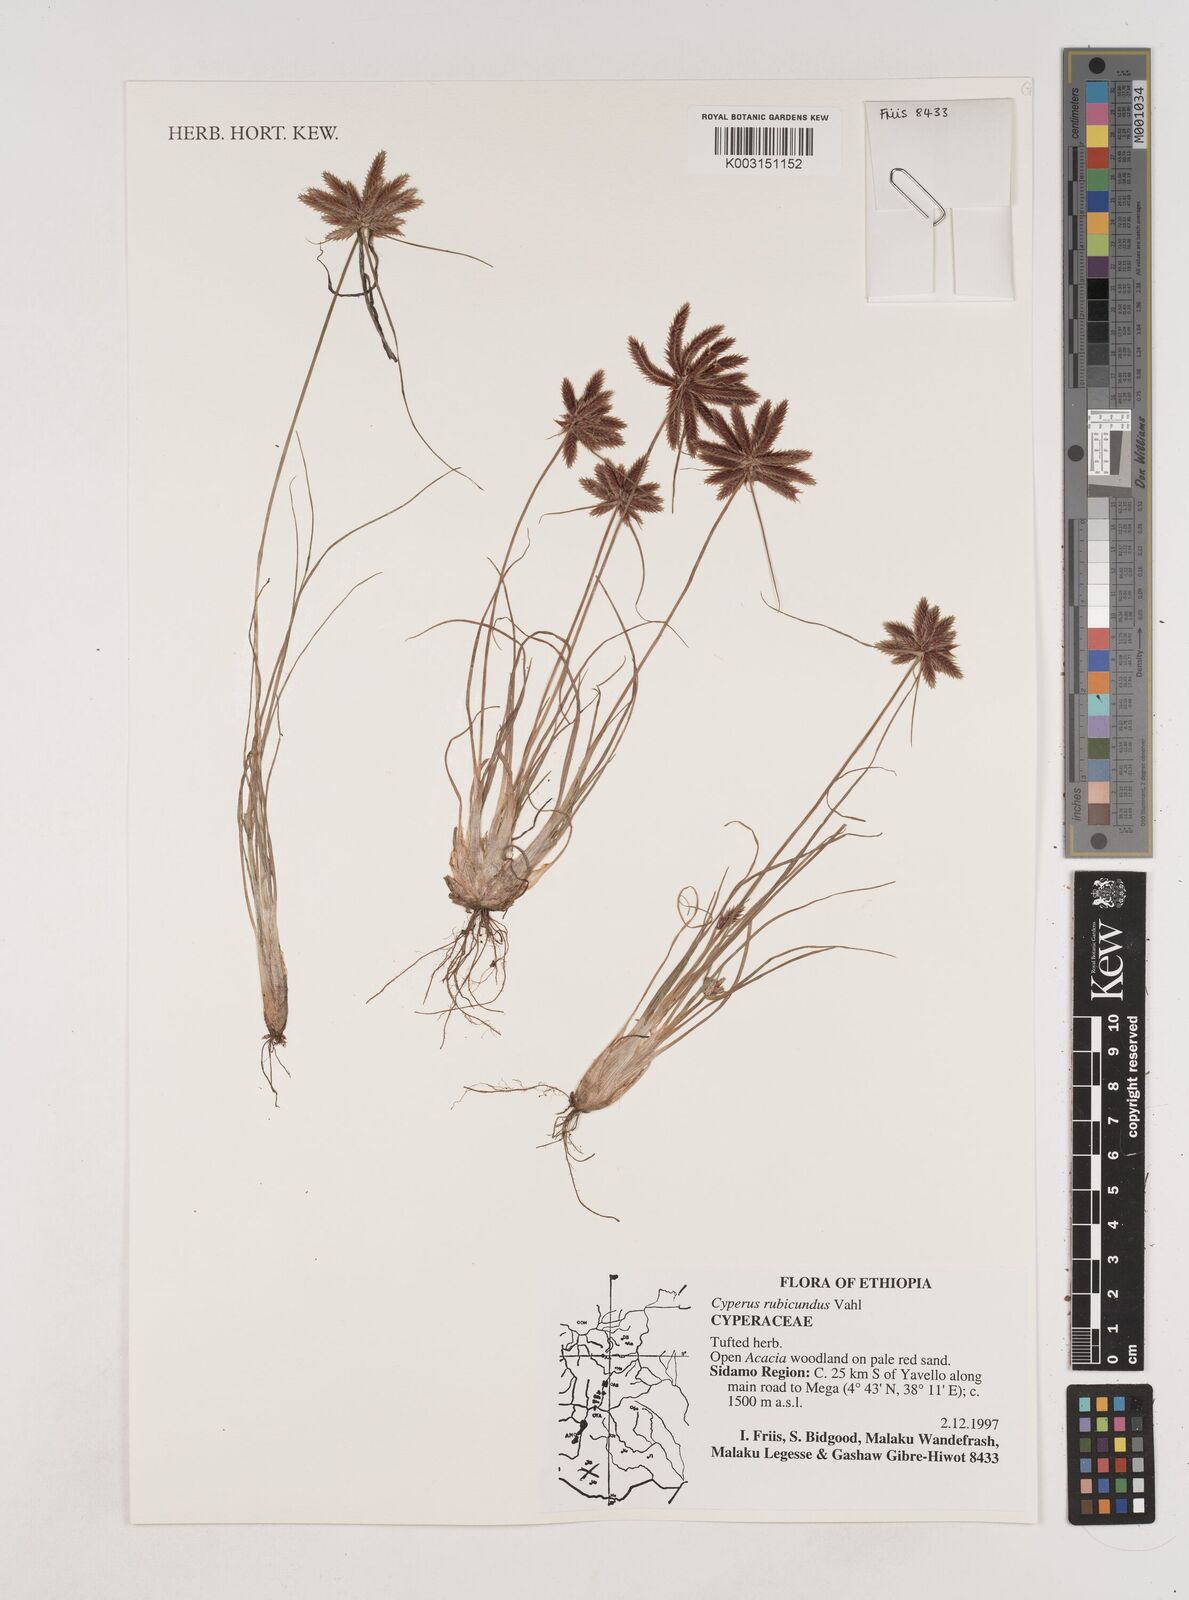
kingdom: Plantae
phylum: Tracheophyta
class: Liliopsida
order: Poales
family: Cyperaceae
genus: Cyperus
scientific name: Cyperus rubicundus
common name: Coco-grass
